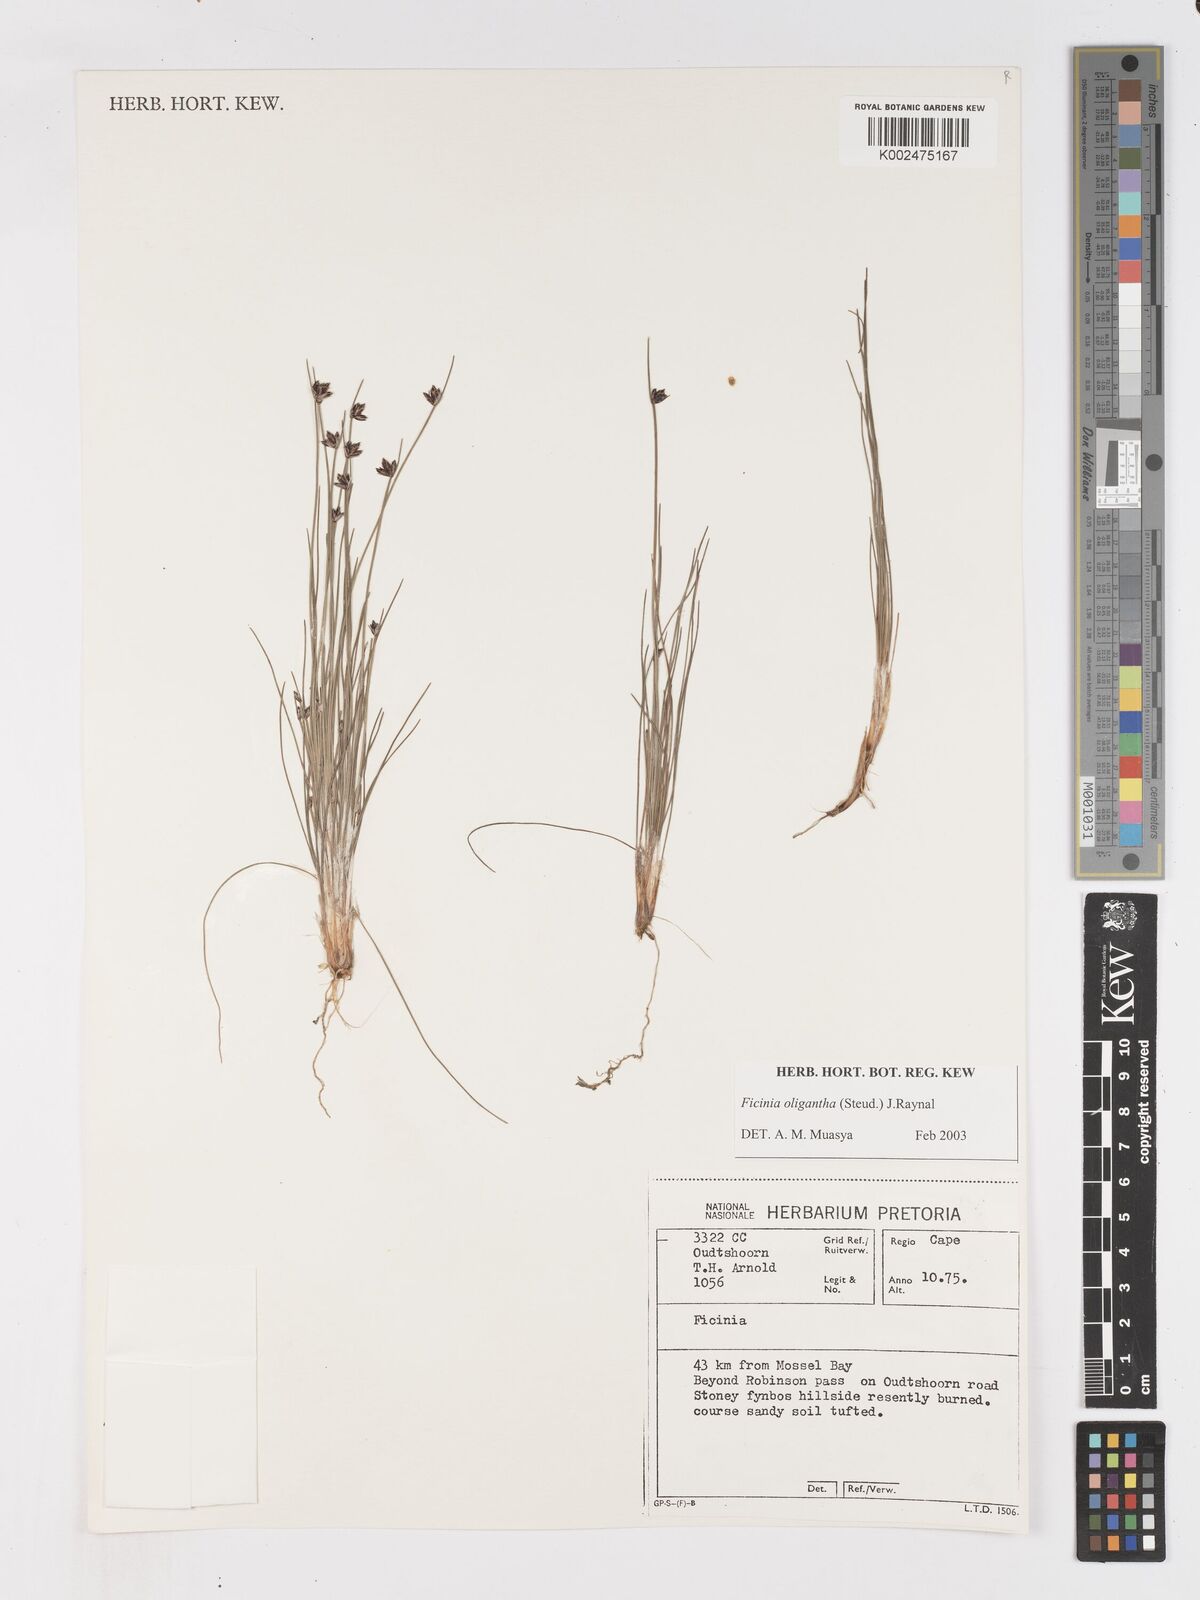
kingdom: Plantae
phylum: Tracheophyta
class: Liliopsida
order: Poales
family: Cyperaceae
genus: Ficinia
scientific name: Ficinia stolonifera
